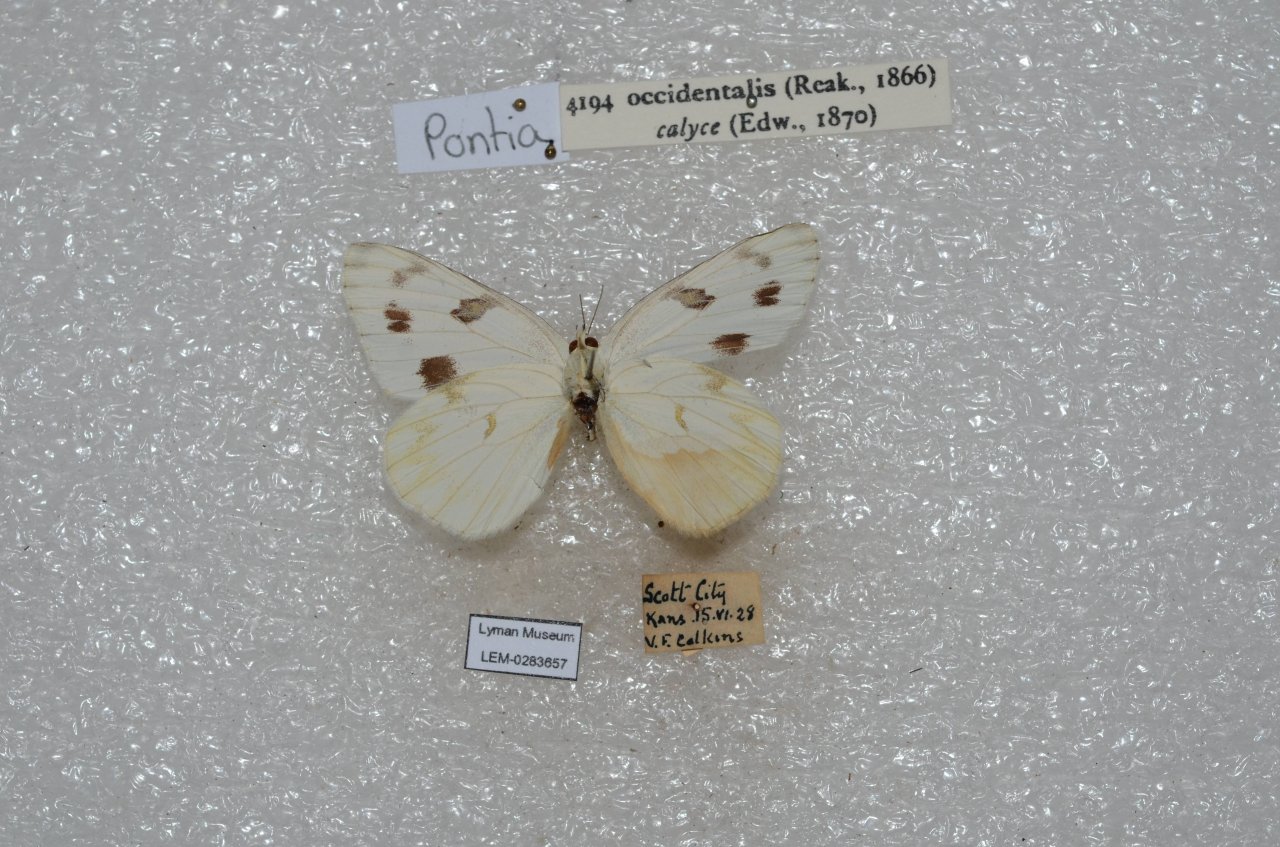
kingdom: Animalia
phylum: Arthropoda
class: Insecta
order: Lepidoptera
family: Pieridae
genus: Pontia
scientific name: Pontia occidentalis
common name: Western White
